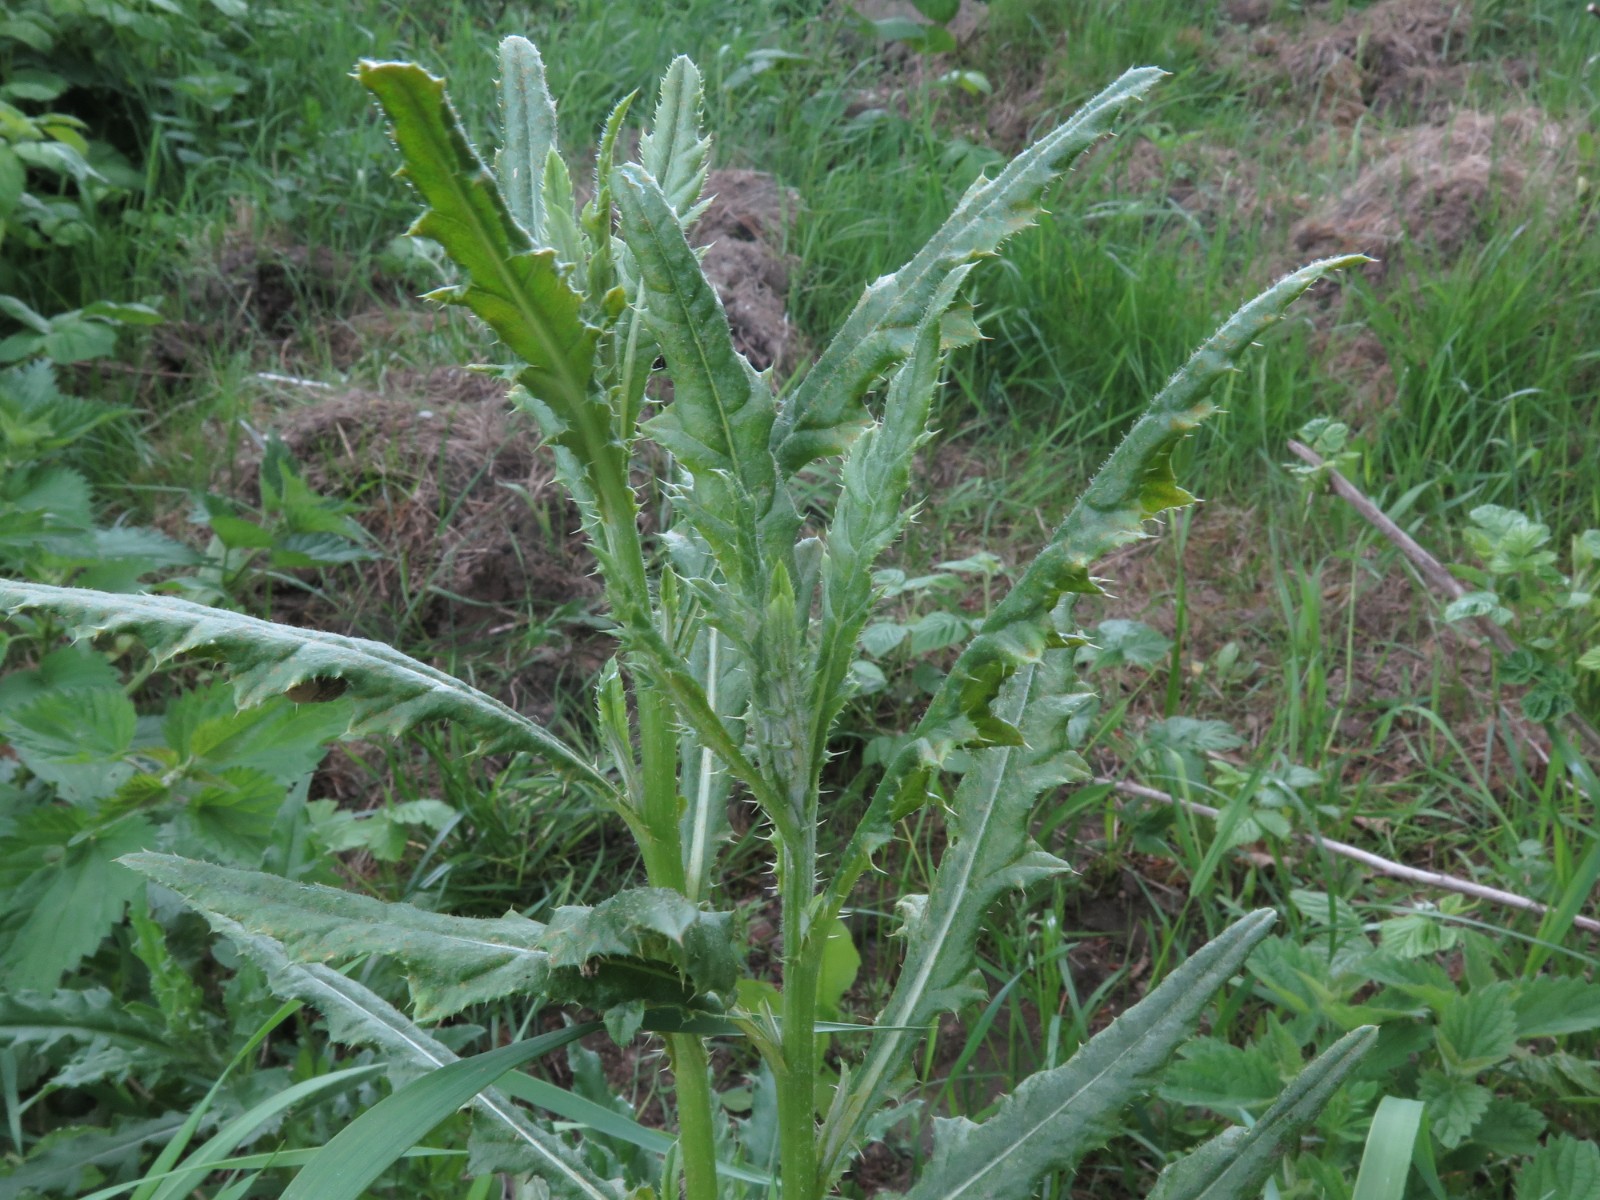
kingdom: Fungi
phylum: Basidiomycota
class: Pucciniomycetes
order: Pucciniales
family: Pucciniaceae
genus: Puccinia
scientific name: Puccinia suaveolens
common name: tidsel-tvecellerust
